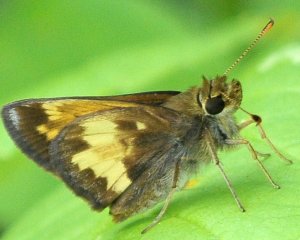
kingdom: Animalia
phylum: Arthropoda
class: Insecta
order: Lepidoptera
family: Hesperiidae
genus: Lon
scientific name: Lon hobomok
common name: Hobomok Skipper
